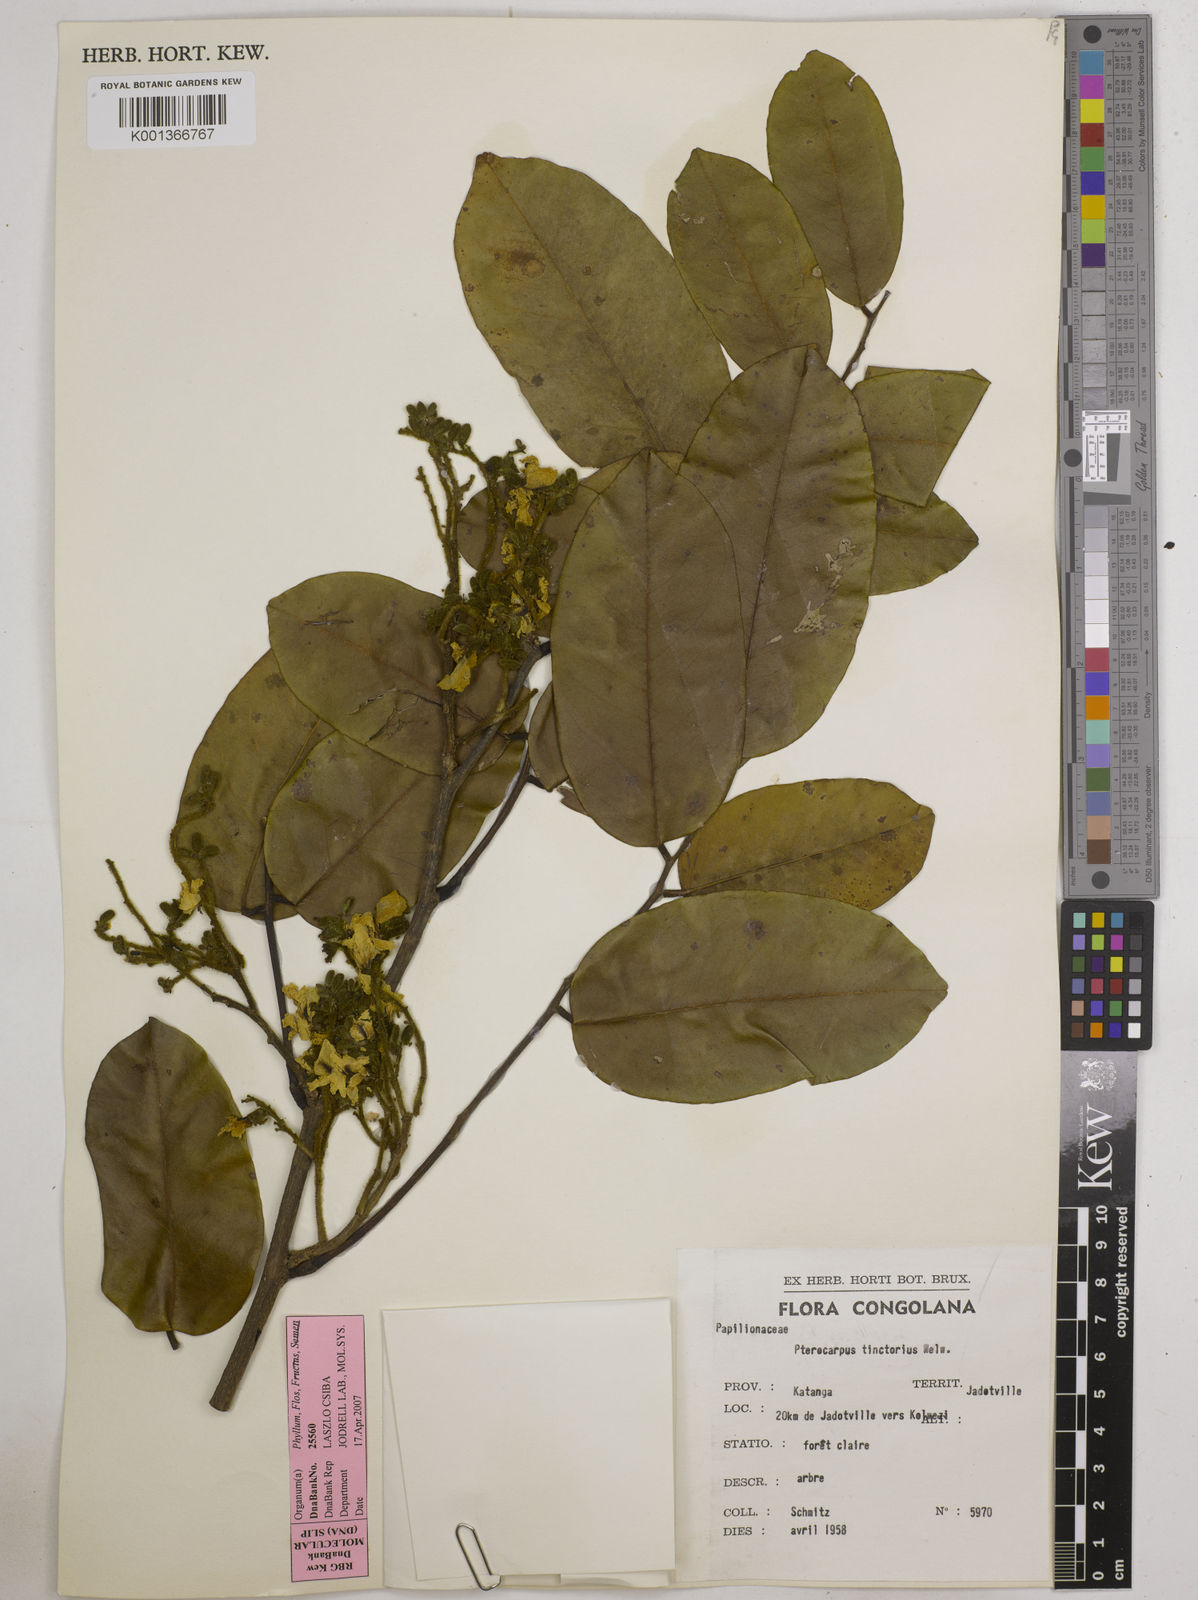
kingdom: Plantae
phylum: Tracheophyta
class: Magnoliopsida
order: Fabales
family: Fabaceae
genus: Pterocarpus
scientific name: Pterocarpus tinctorius
